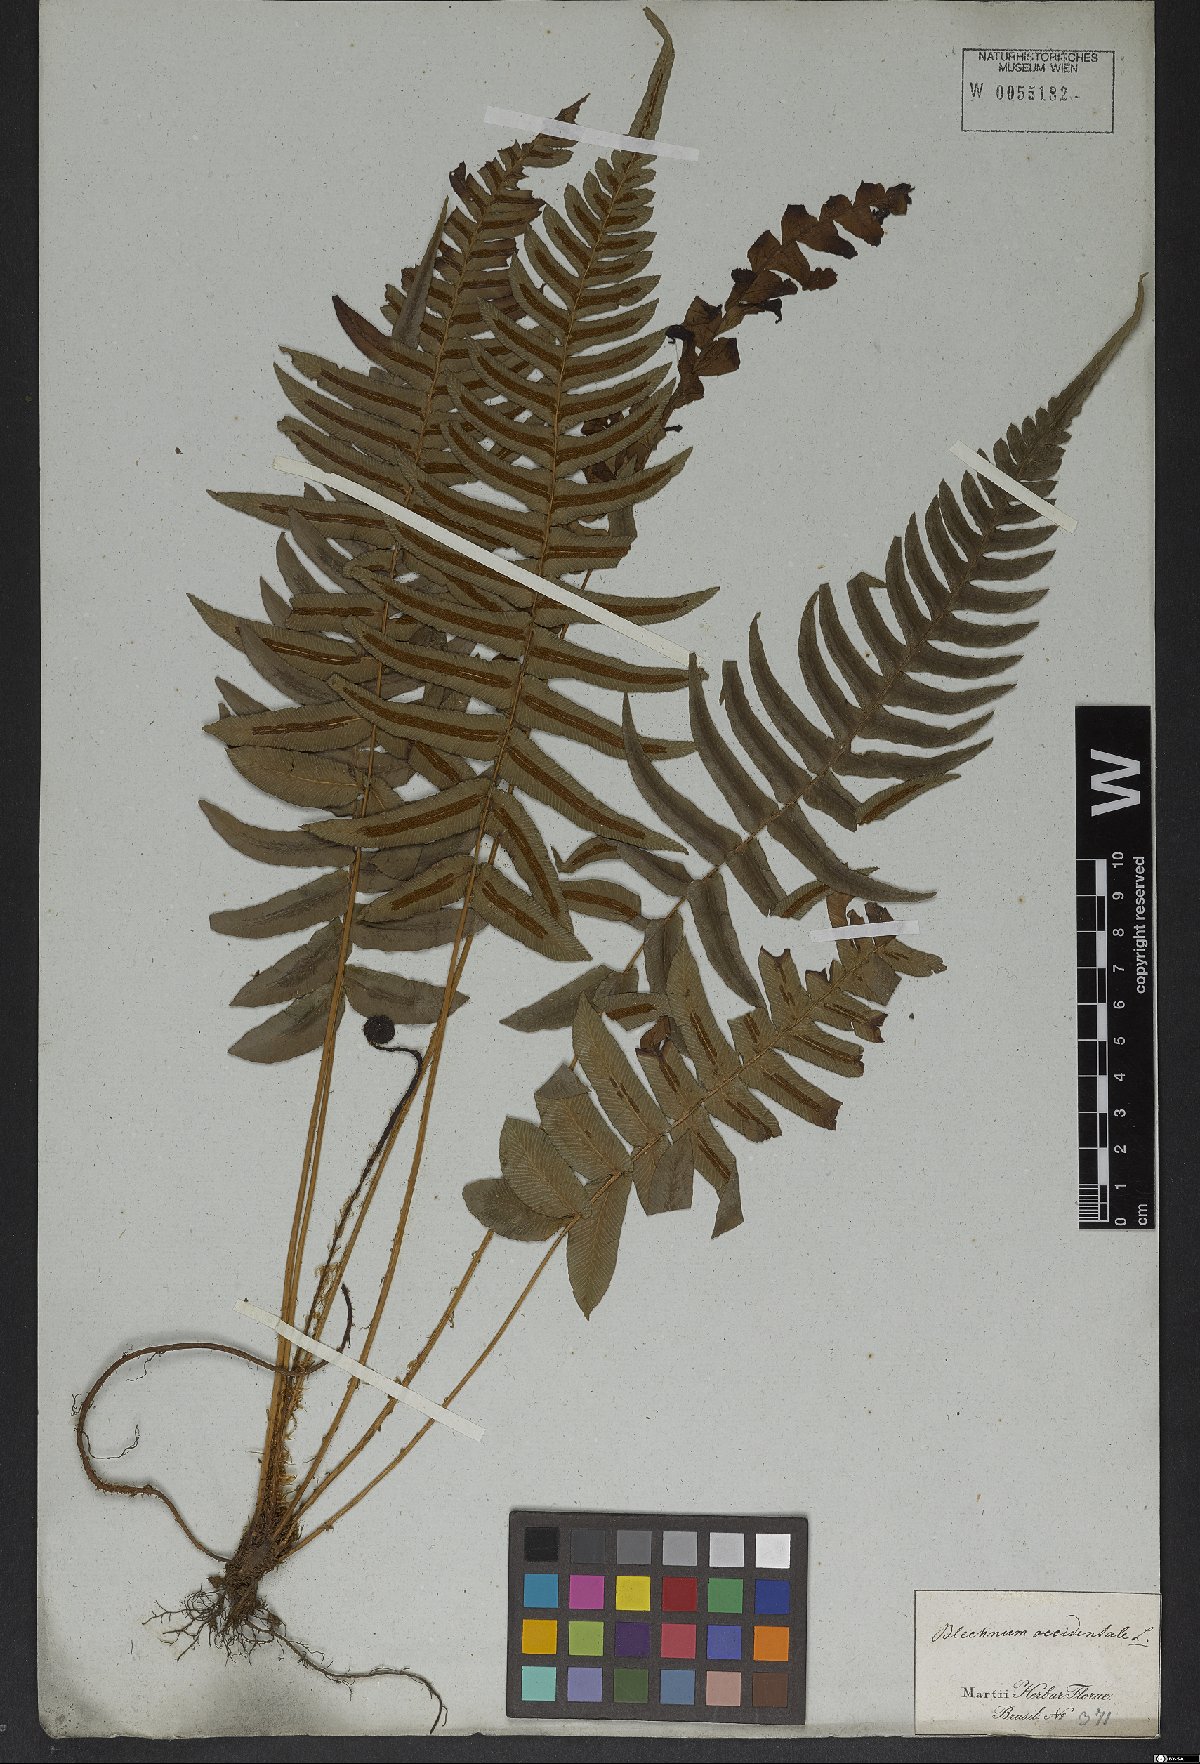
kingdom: Plantae
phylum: Tracheophyta
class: Polypodiopsida
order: Polypodiales
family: Blechnaceae
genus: Blechnum
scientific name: Blechnum occidentale
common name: Hammock fern
